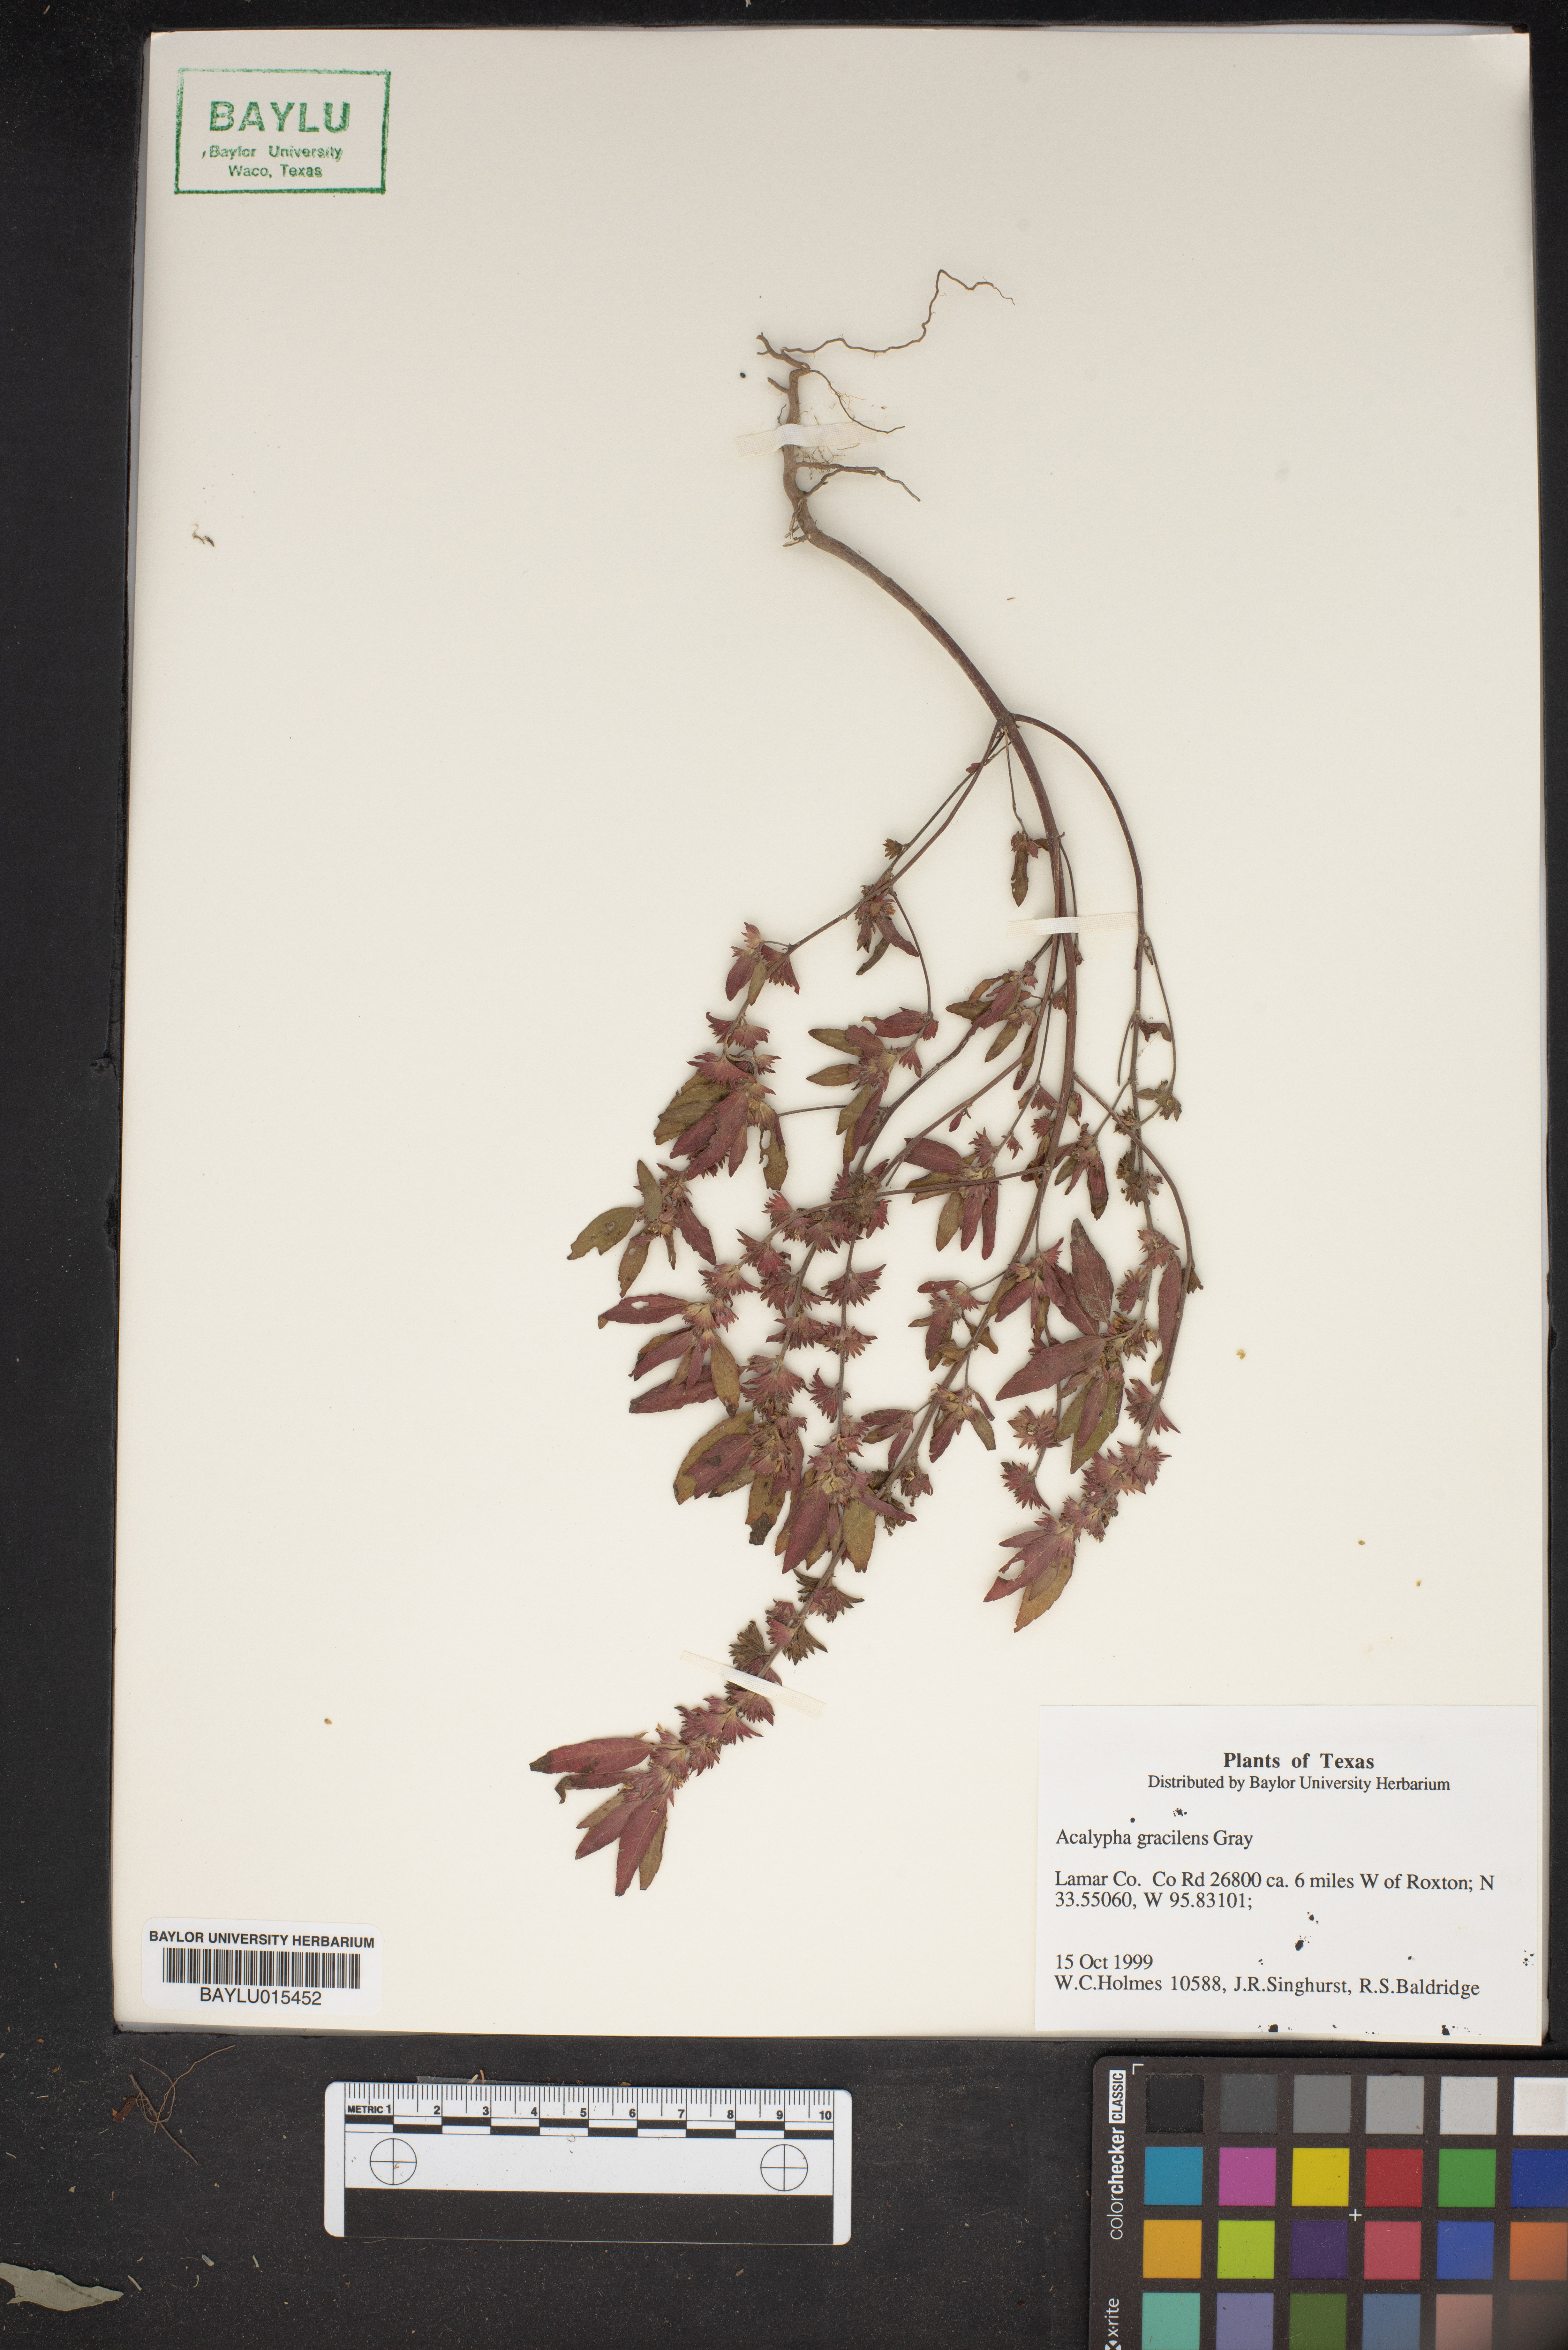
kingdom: Plantae
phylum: Tracheophyta
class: Magnoliopsida
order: Malpighiales
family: Euphorbiaceae
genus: Acalypha
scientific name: Acalypha gracilens
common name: Slender three-seeded mercury
